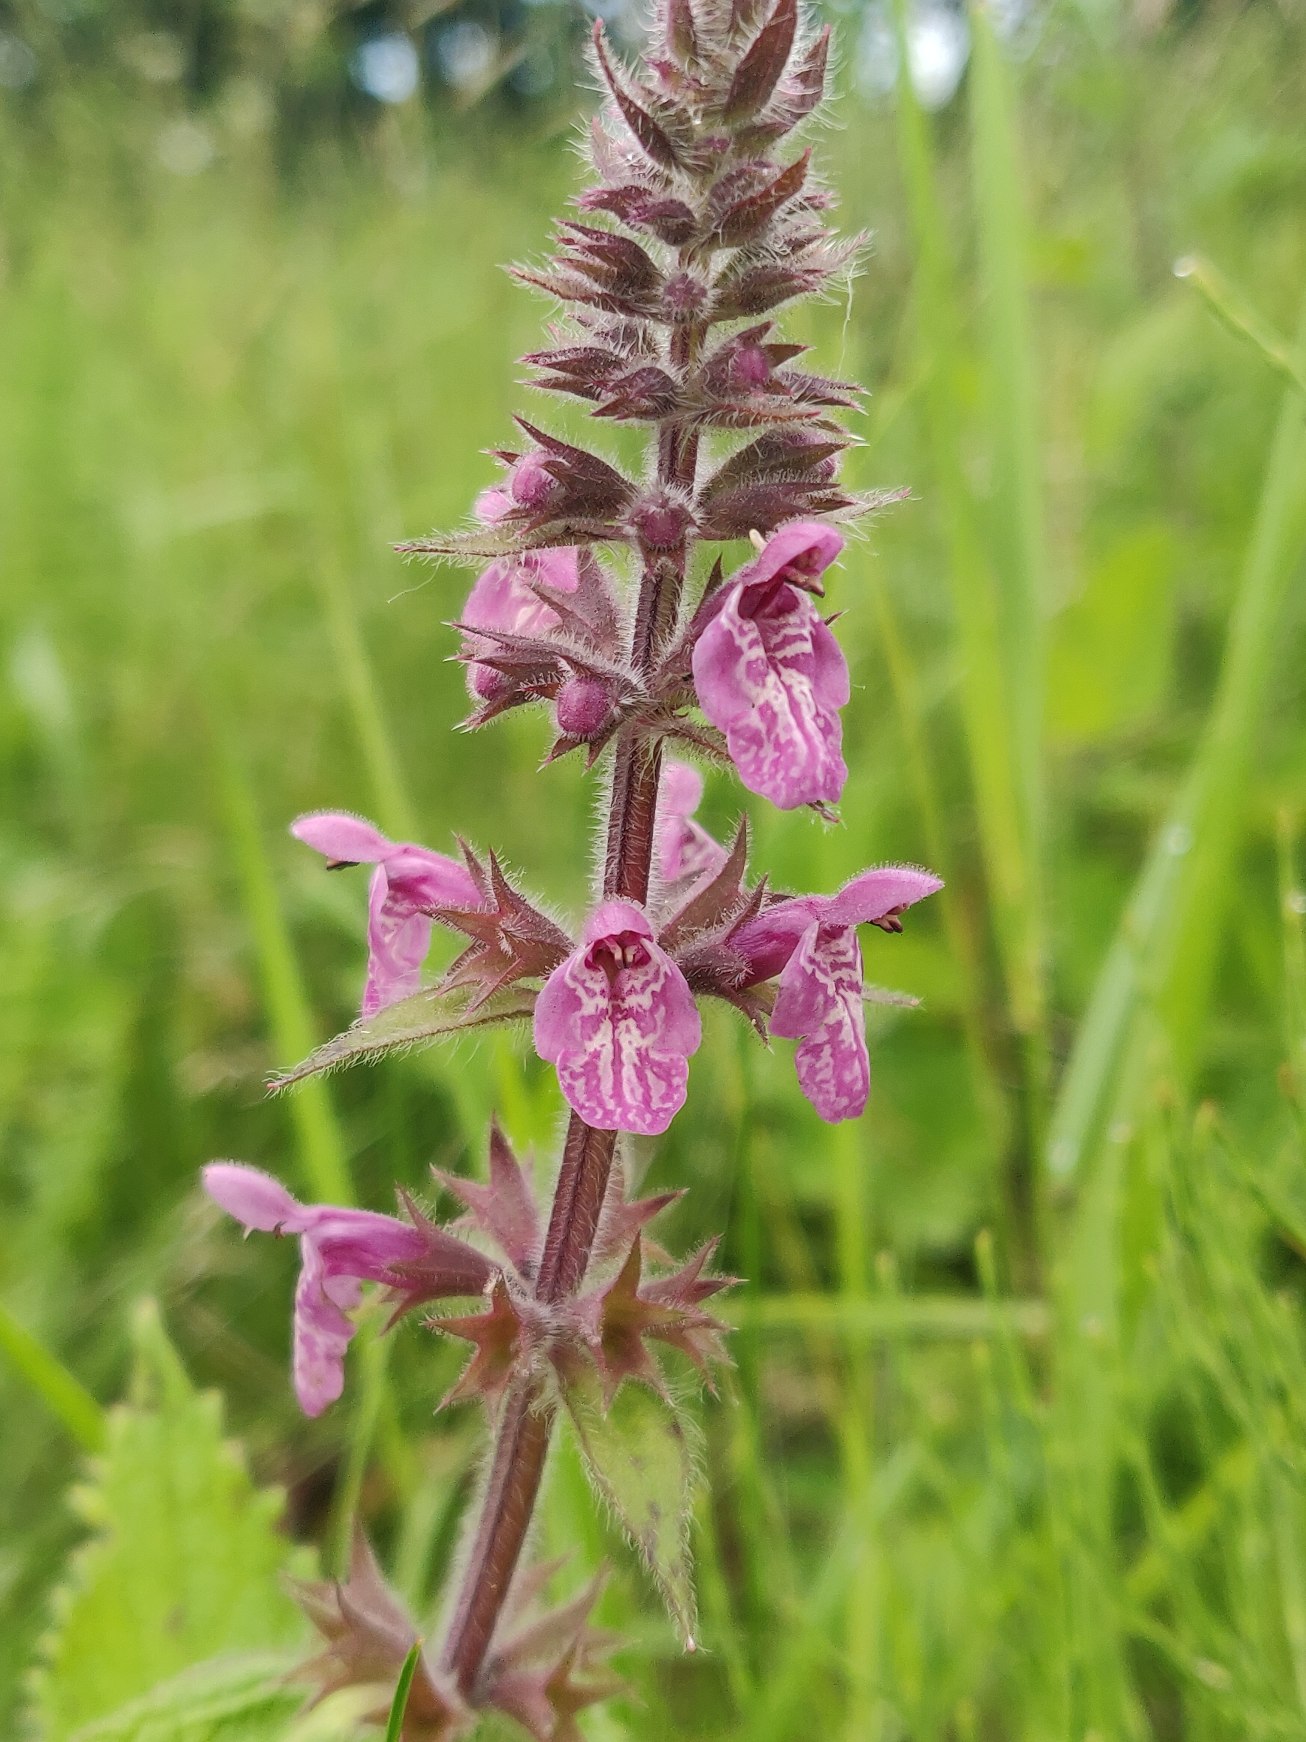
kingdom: Plantae
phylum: Tracheophyta
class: Magnoliopsida
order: Lamiales
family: Lamiaceae
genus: Stachys
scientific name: Stachys sylvatica
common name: Skov-galtetand
